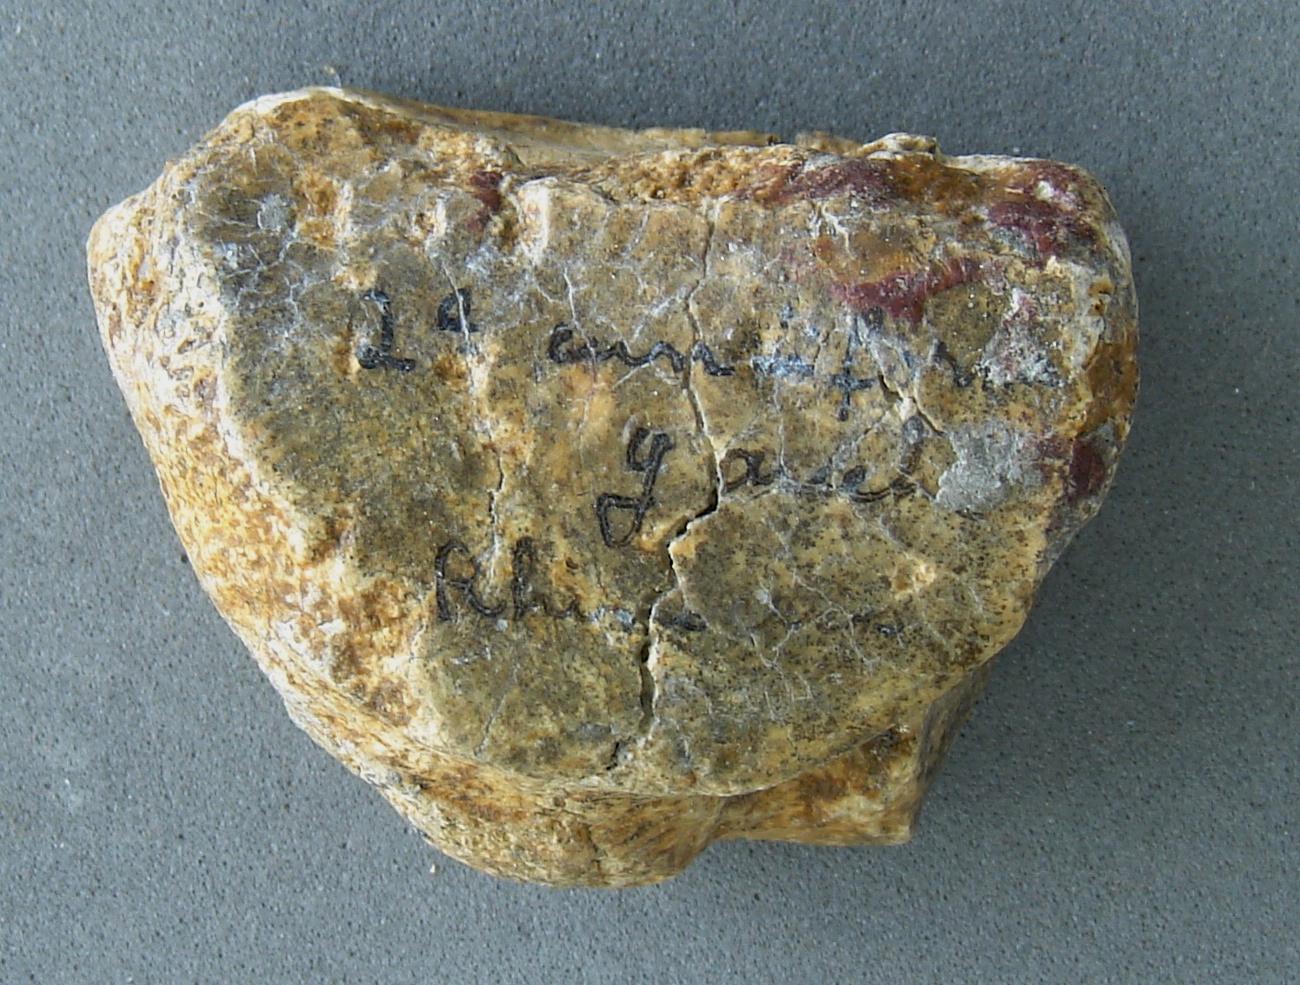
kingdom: Animalia
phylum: Chordata
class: Mammalia
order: Perissodactyla
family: Rhinocerotidae
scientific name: Rhinocerotidae
